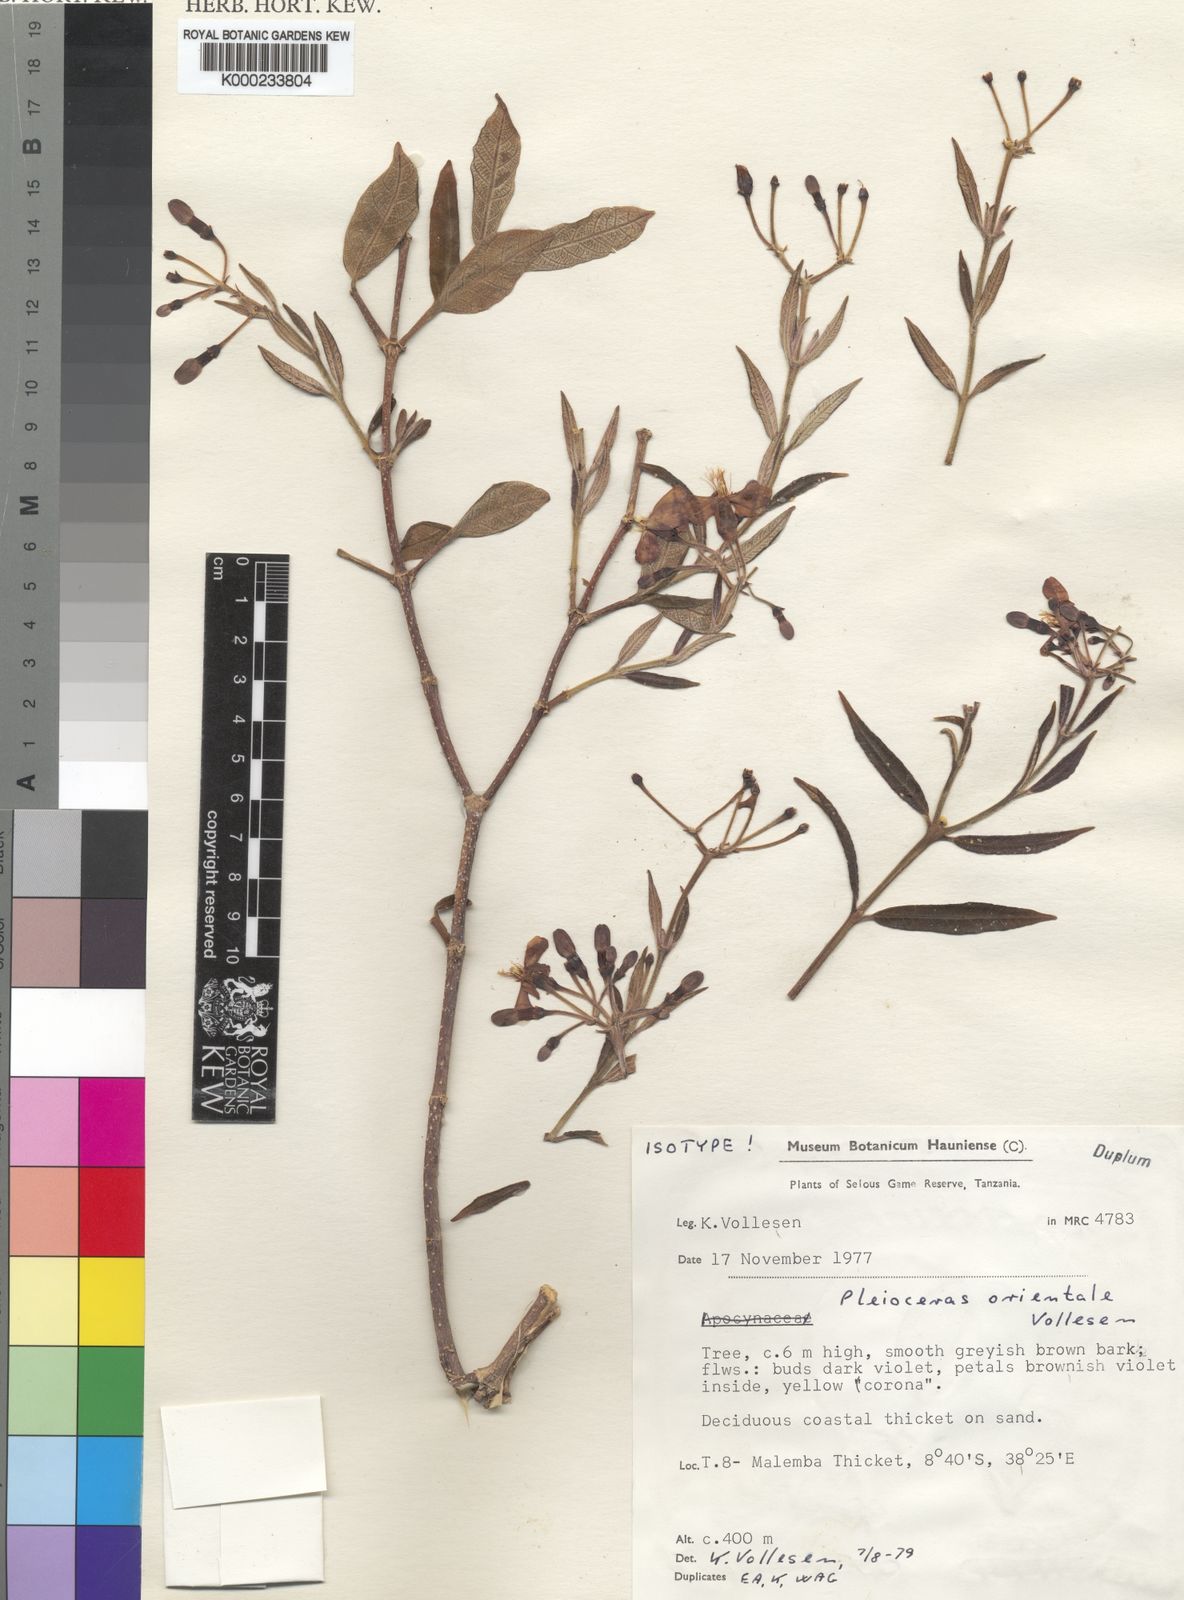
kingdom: Plantae
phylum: Tracheophyta
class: Magnoliopsida
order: Gentianales
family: Apocynaceae
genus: Pleioceras
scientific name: Pleioceras orientale
